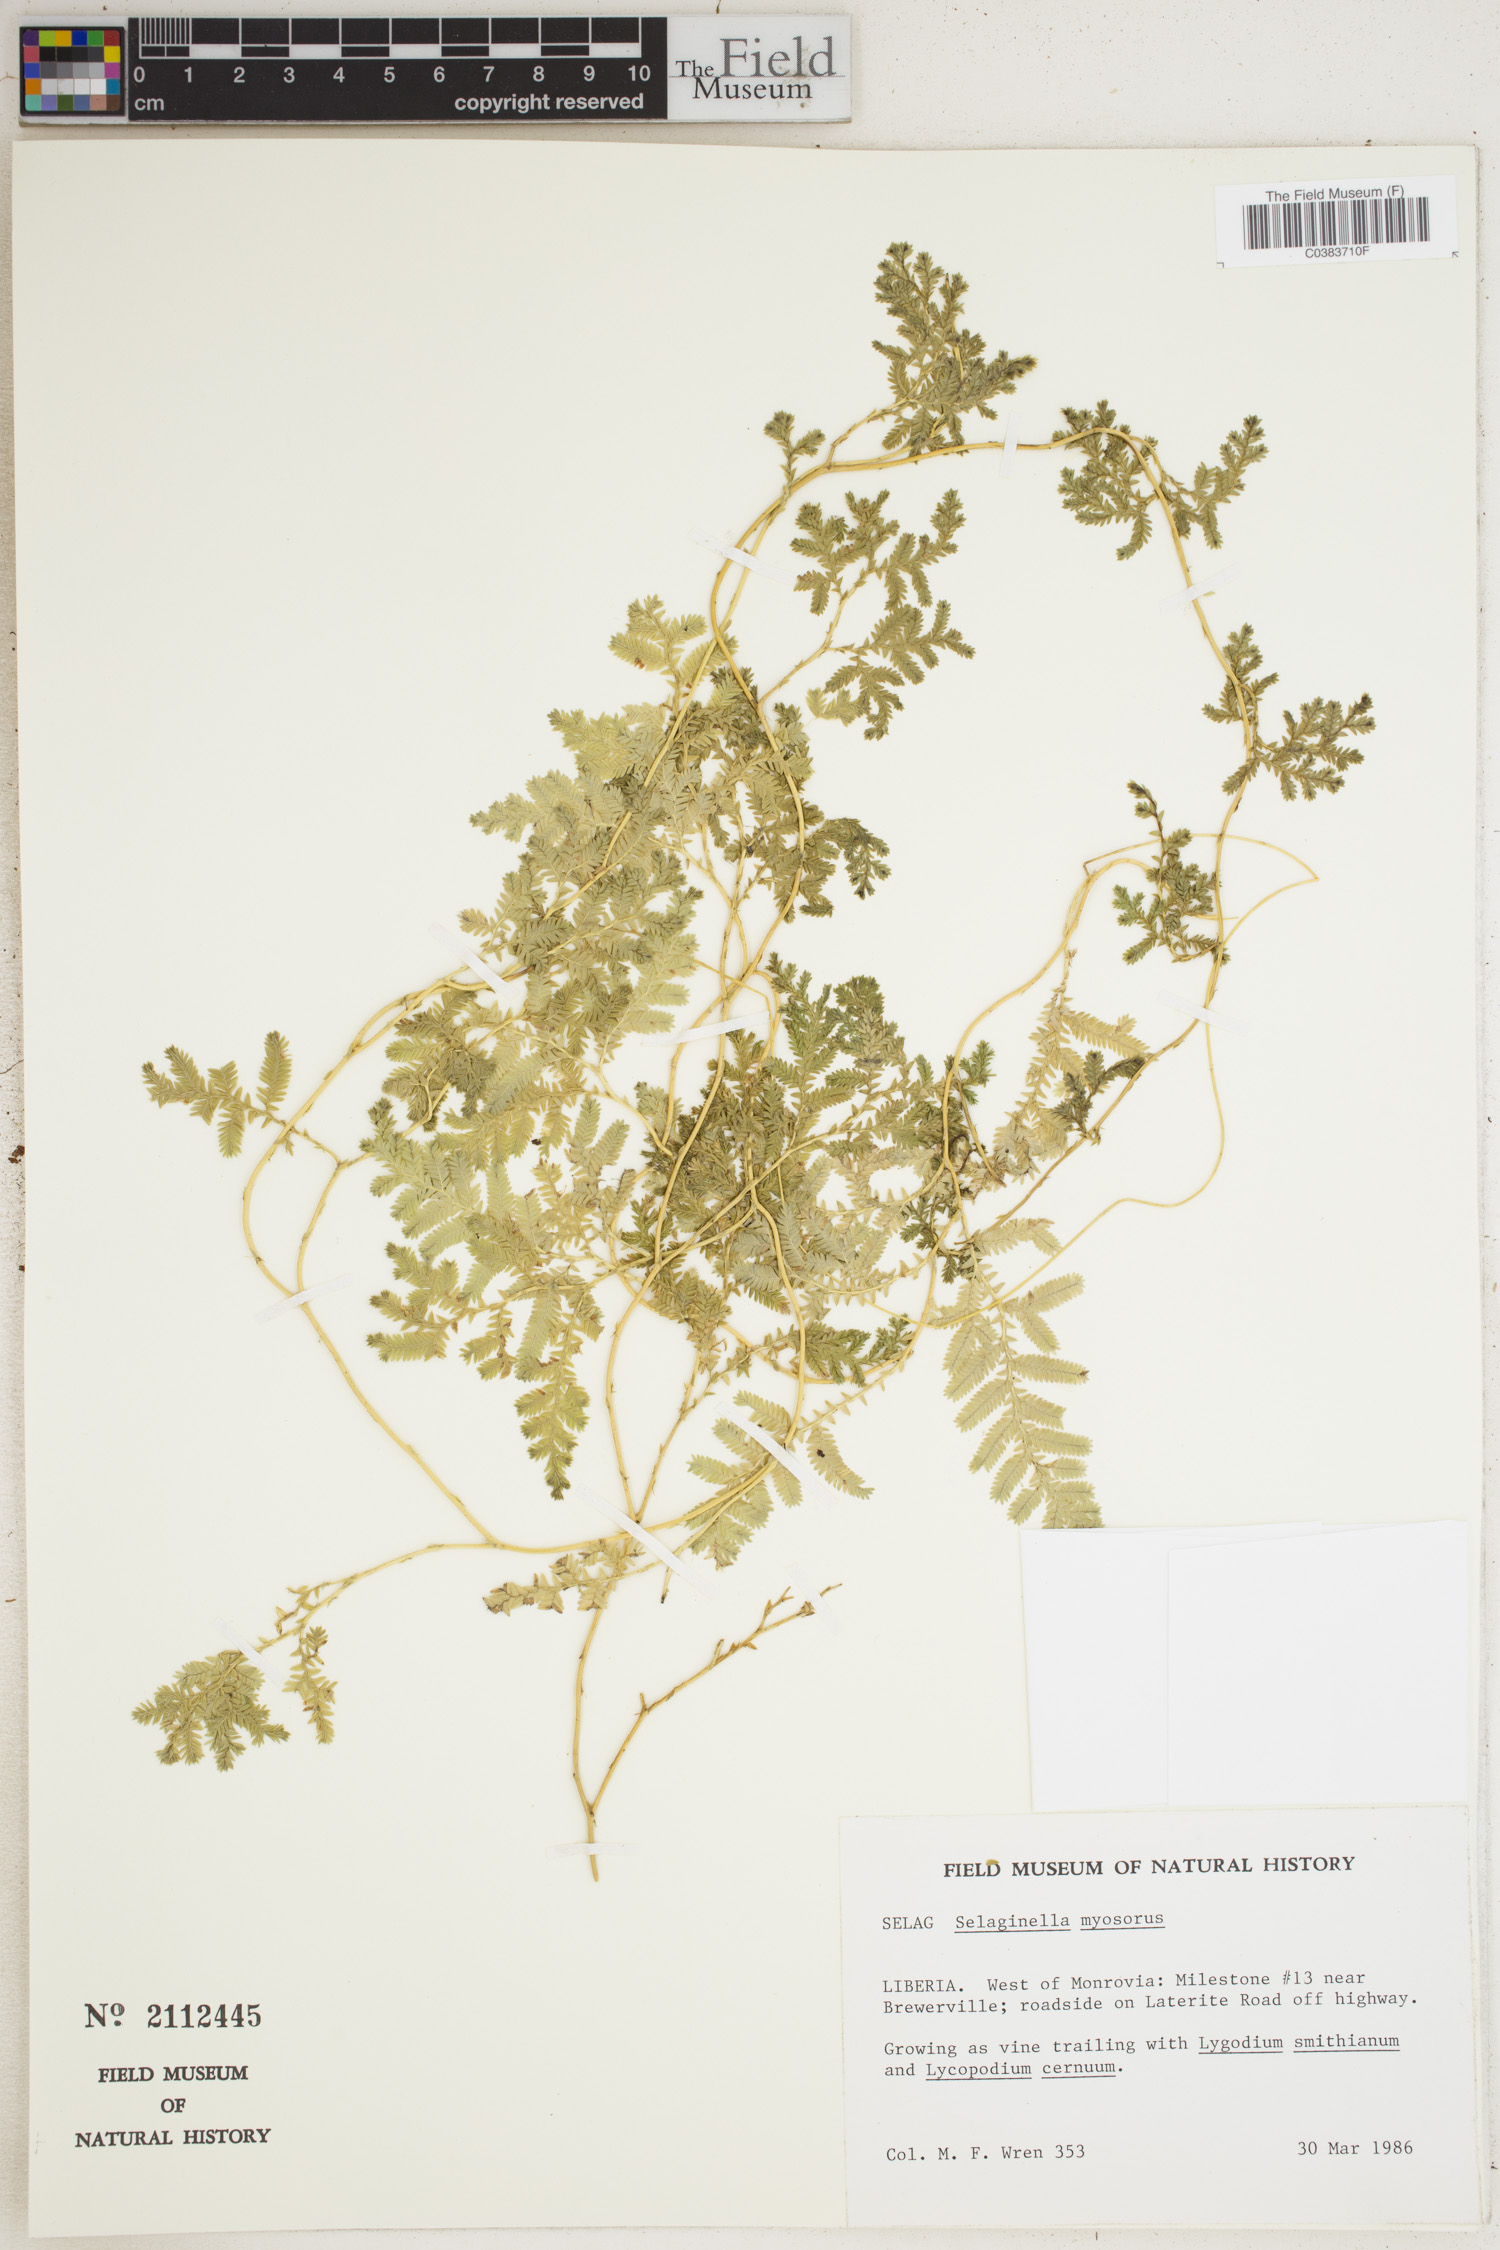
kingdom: Plantae
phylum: Tracheophyta
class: Lycopodiopsida
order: Selaginellales
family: Selaginellaceae
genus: Selaginella
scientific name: Selaginella myosurus
